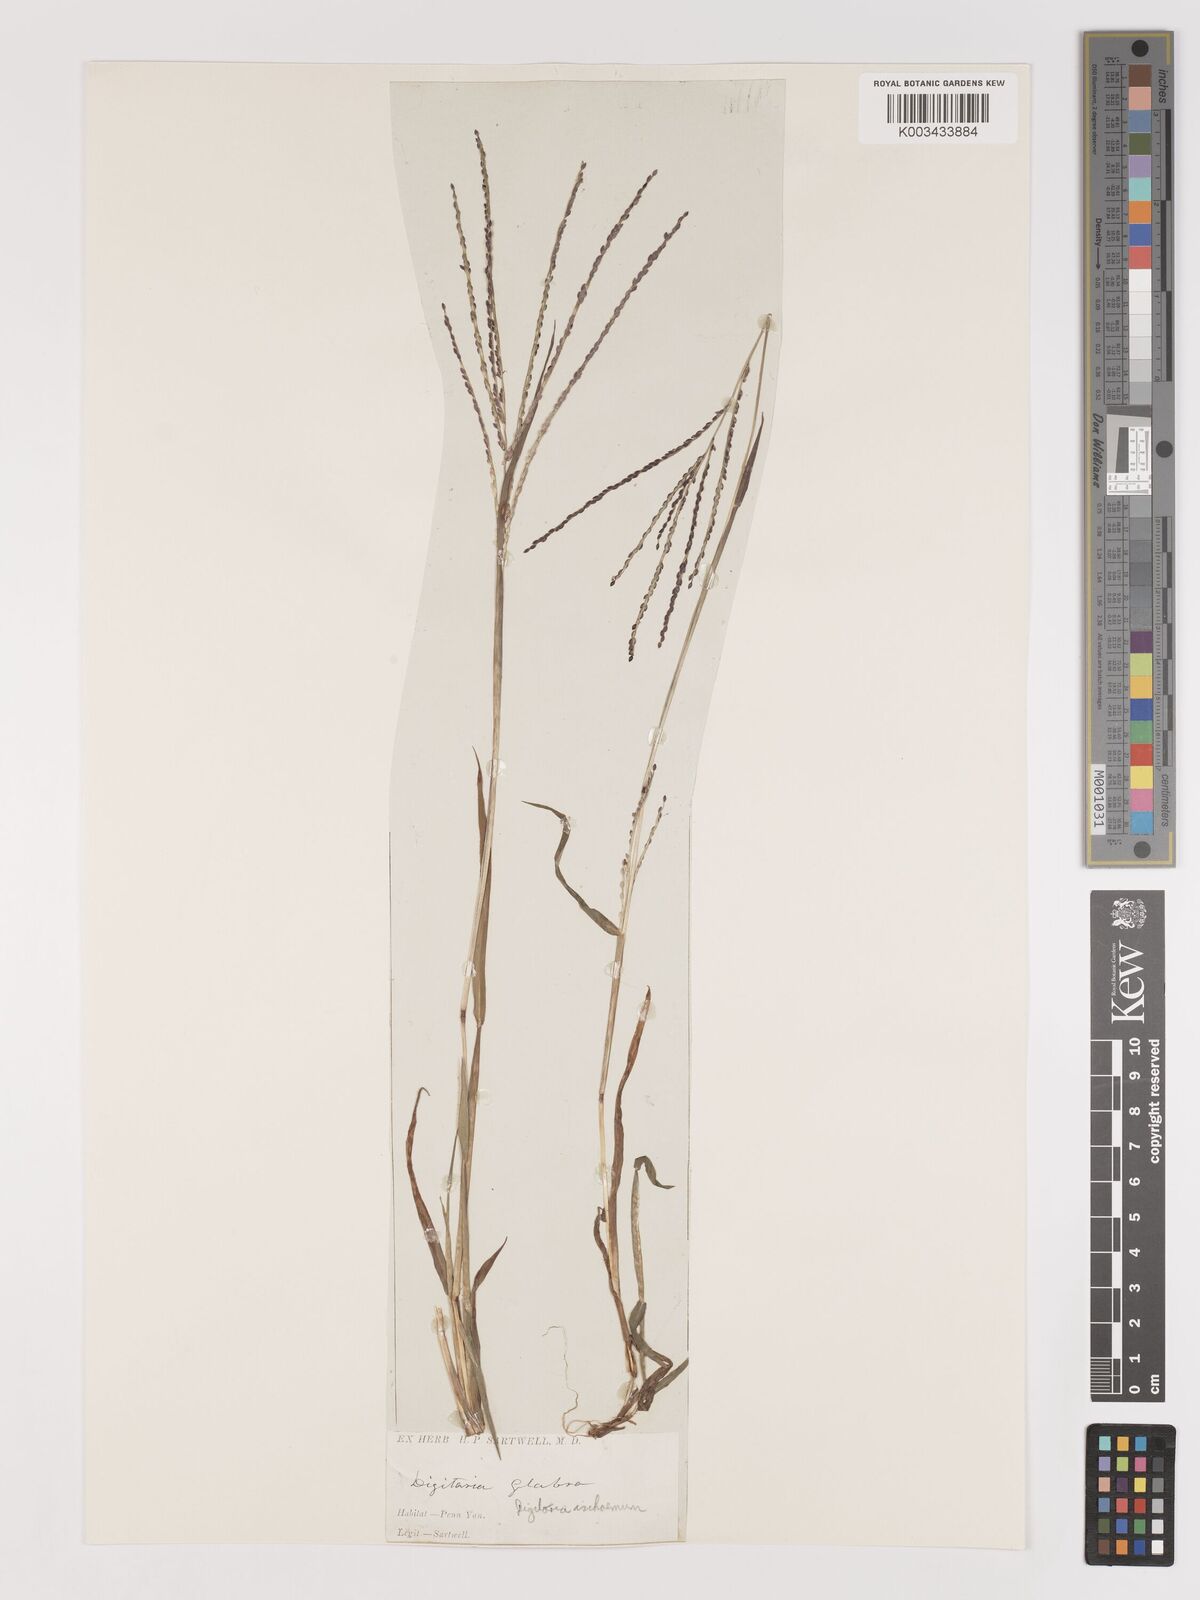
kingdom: Plantae
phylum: Tracheophyta
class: Liliopsida
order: Poales
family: Poaceae
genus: Digitaria
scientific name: Digitaria ischaemum
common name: Smooth crabgrass
